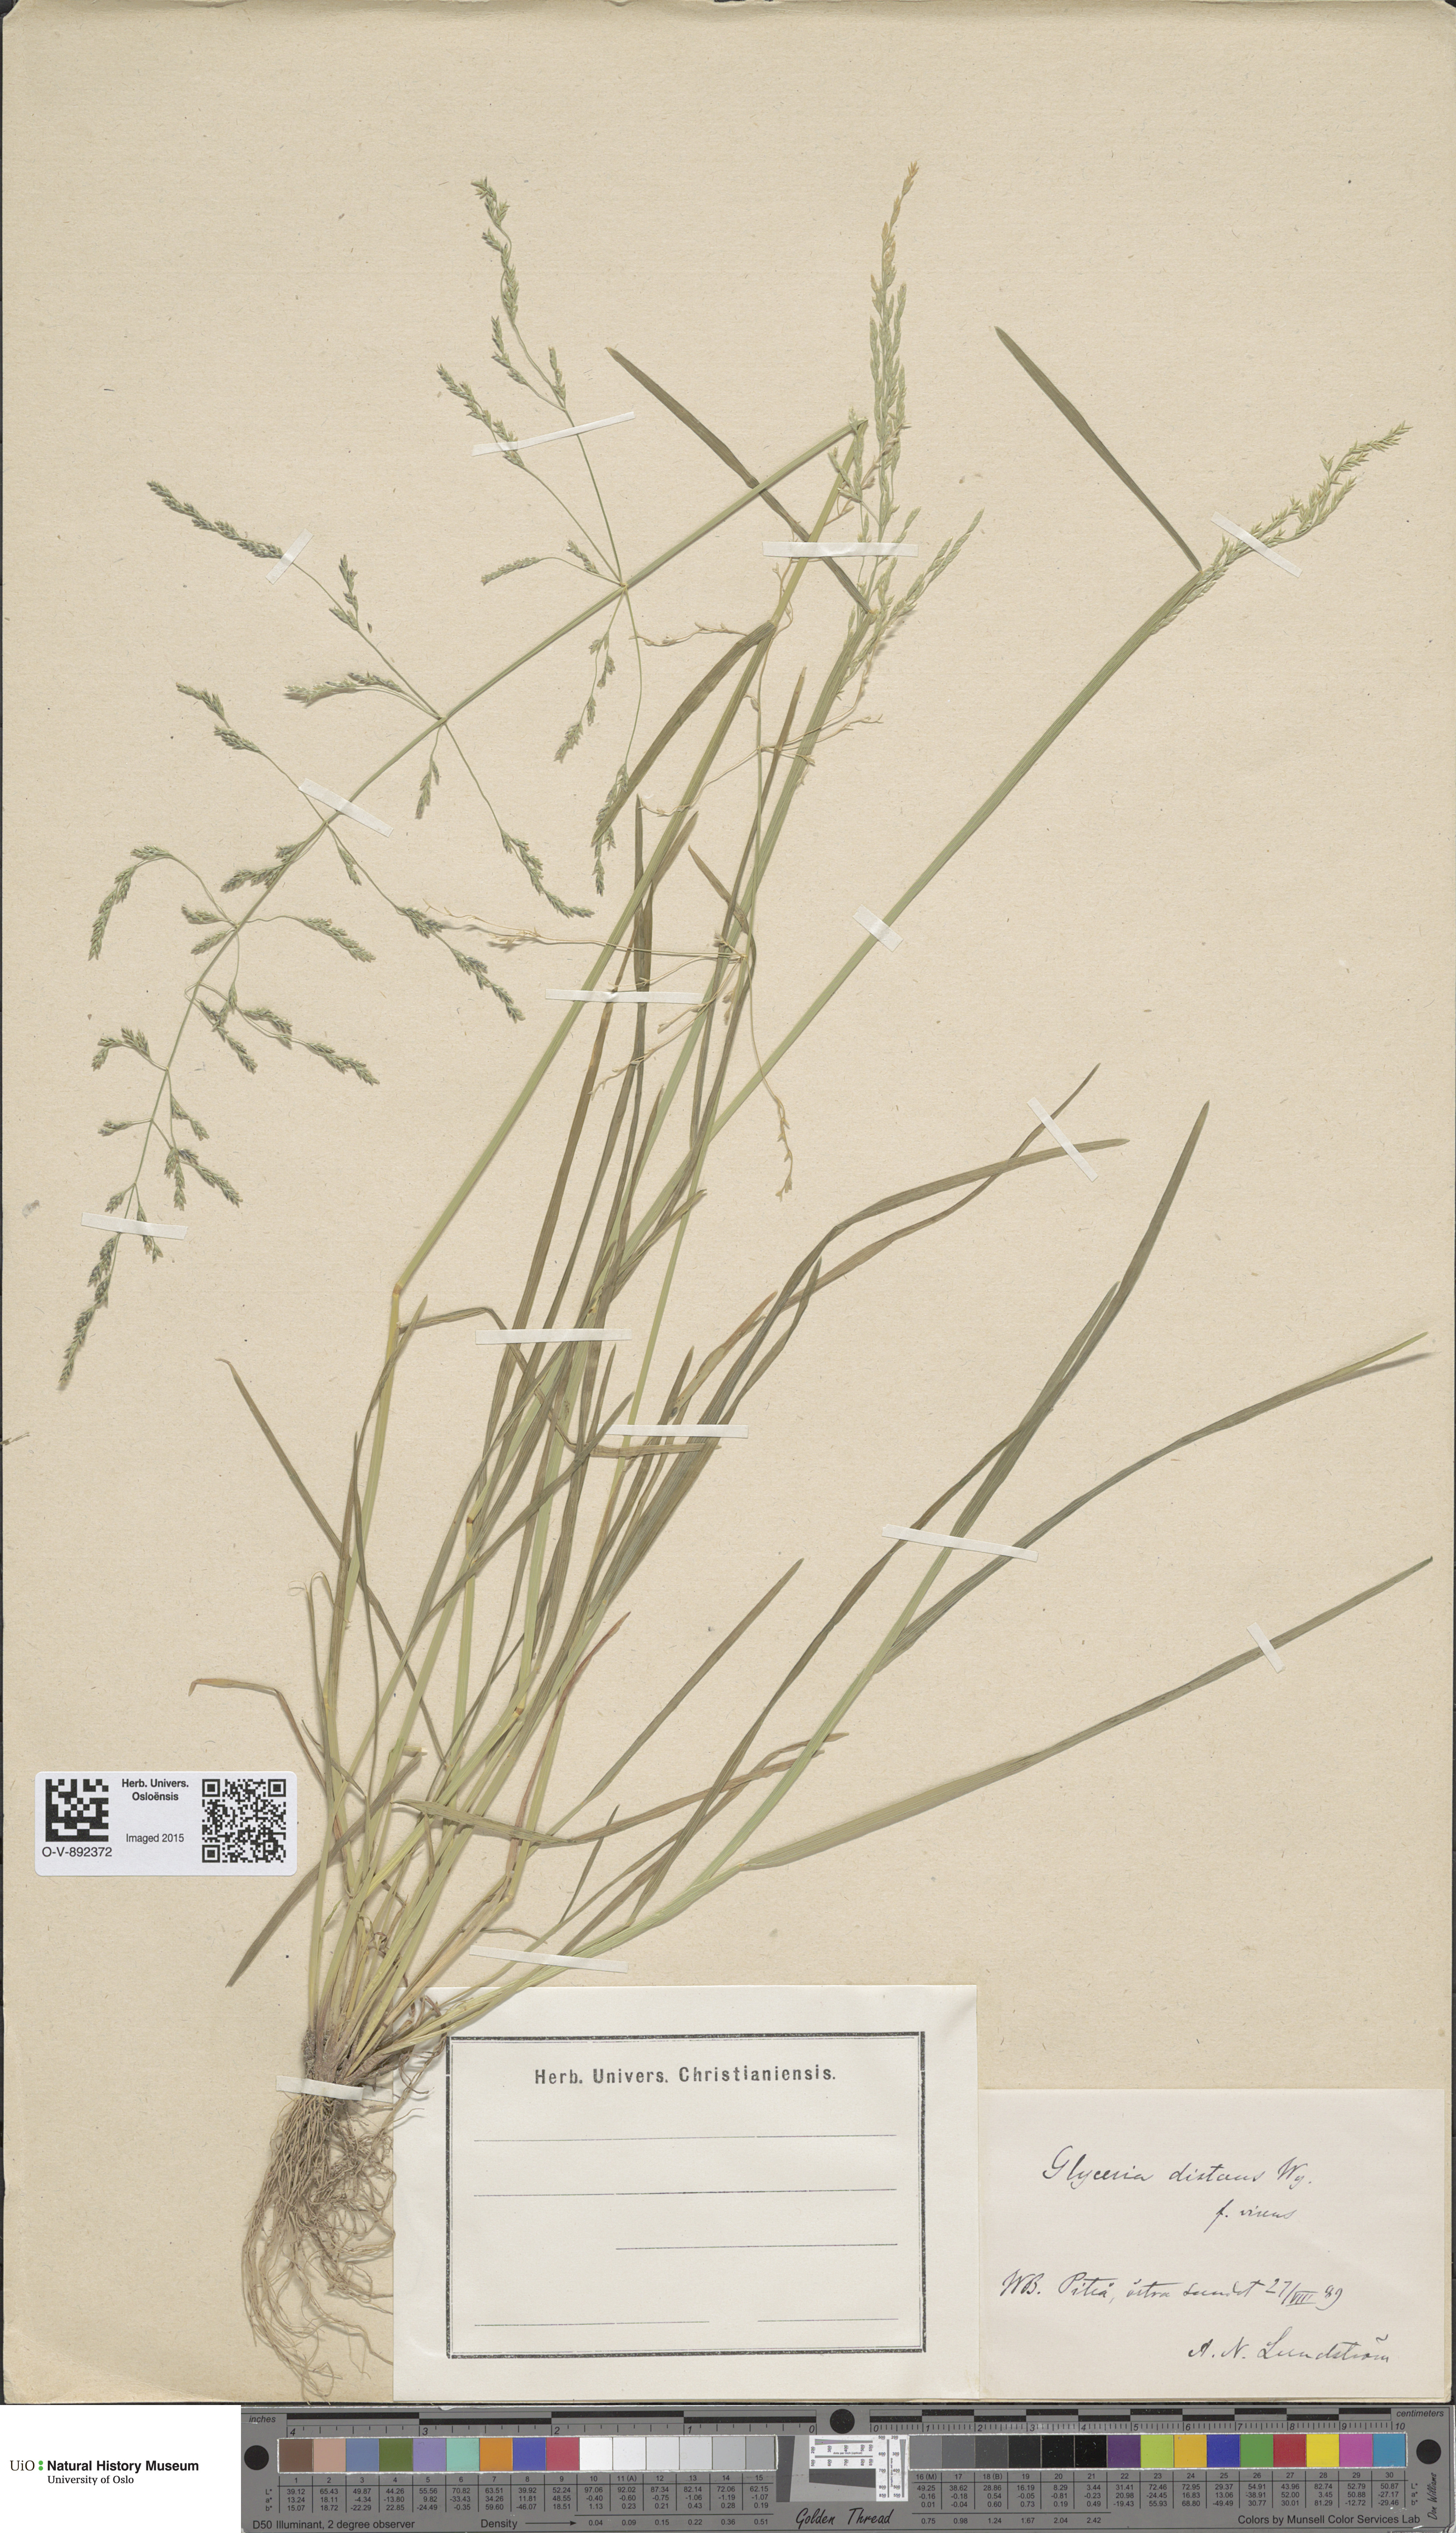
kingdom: Plantae
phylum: Tracheophyta
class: Liliopsida
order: Poales
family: Poaceae
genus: Puccinellia
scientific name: Puccinellia distans
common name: Weeping alkaligrass
